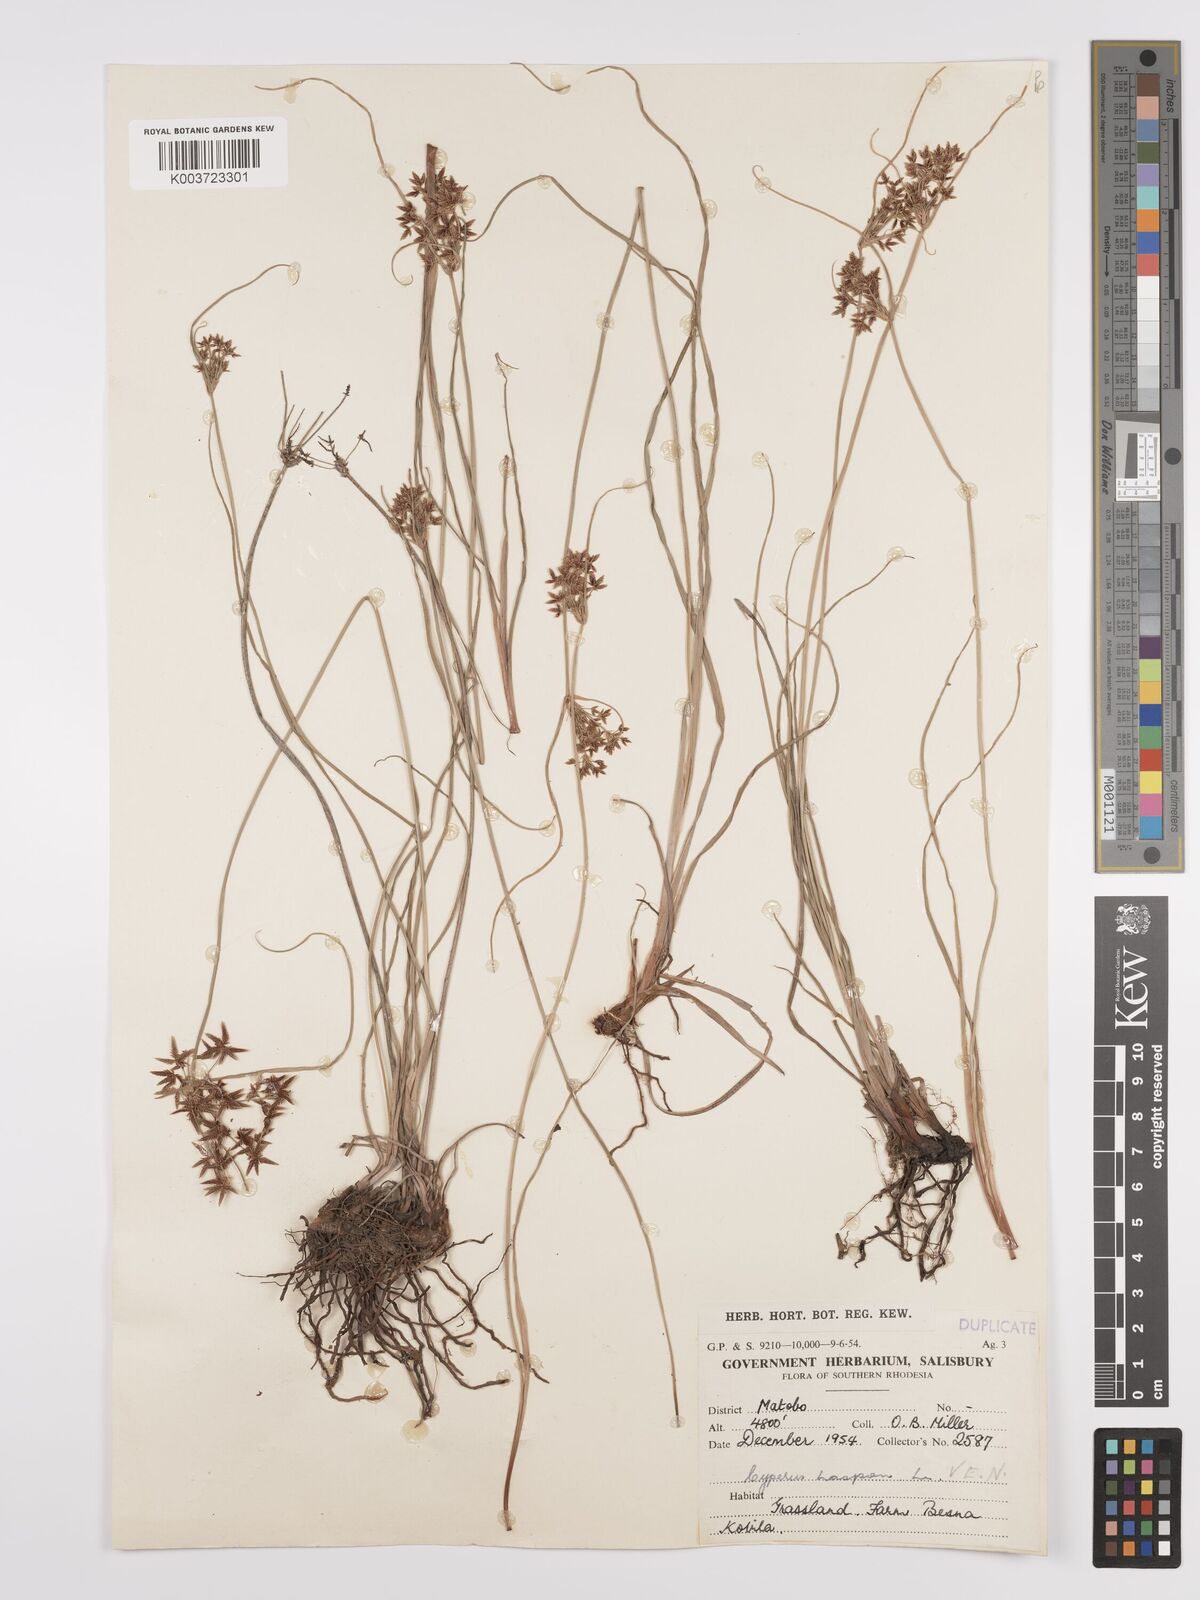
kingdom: Plantae
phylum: Tracheophyta
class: Liliopsida
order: Poales
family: Cyperaceae
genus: Cyperus
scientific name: Cyperus denudatus
